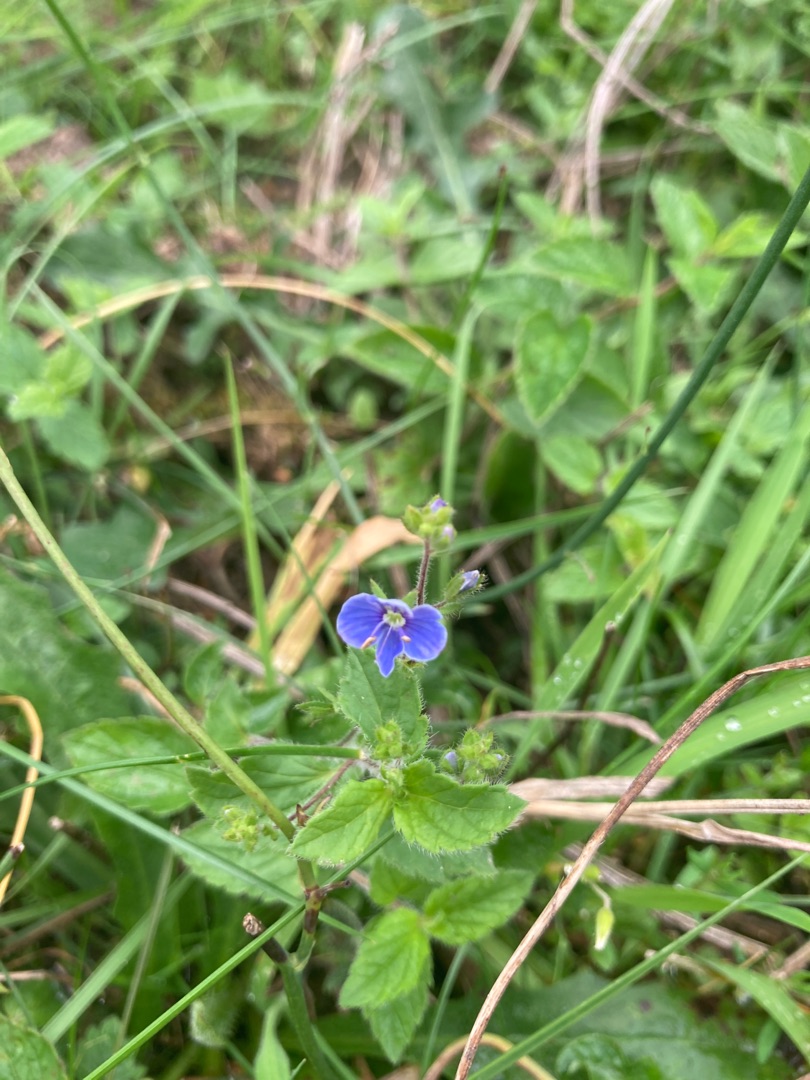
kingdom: Plantae
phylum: Tracheophyta
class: Magnoliopsida
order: Lamiales
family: Plantaginaceae
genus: Veronica
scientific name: Veronica chamaedrys
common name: Tveskægget ærenpris
